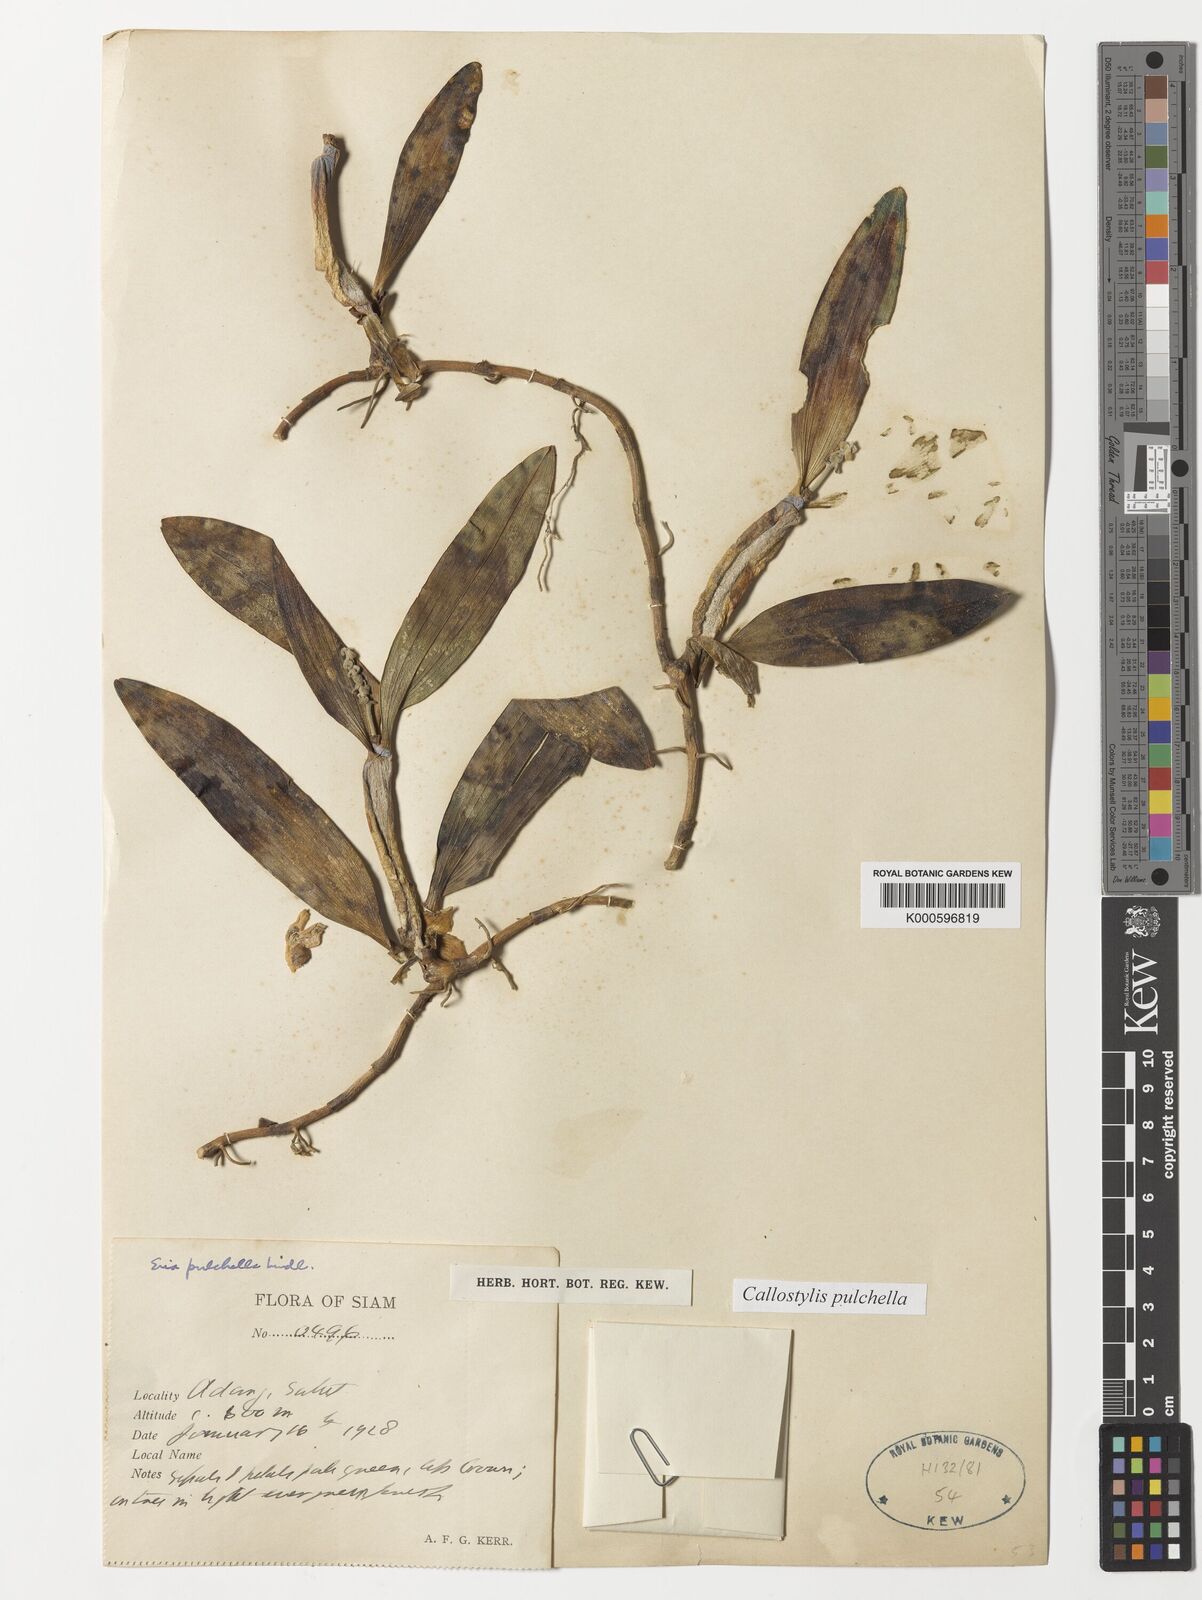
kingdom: Plantae
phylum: Tracheophyta
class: Liliopsida
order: Asparagales
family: Orchidaceae
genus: Callostylis
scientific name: Callostylis pulchella
